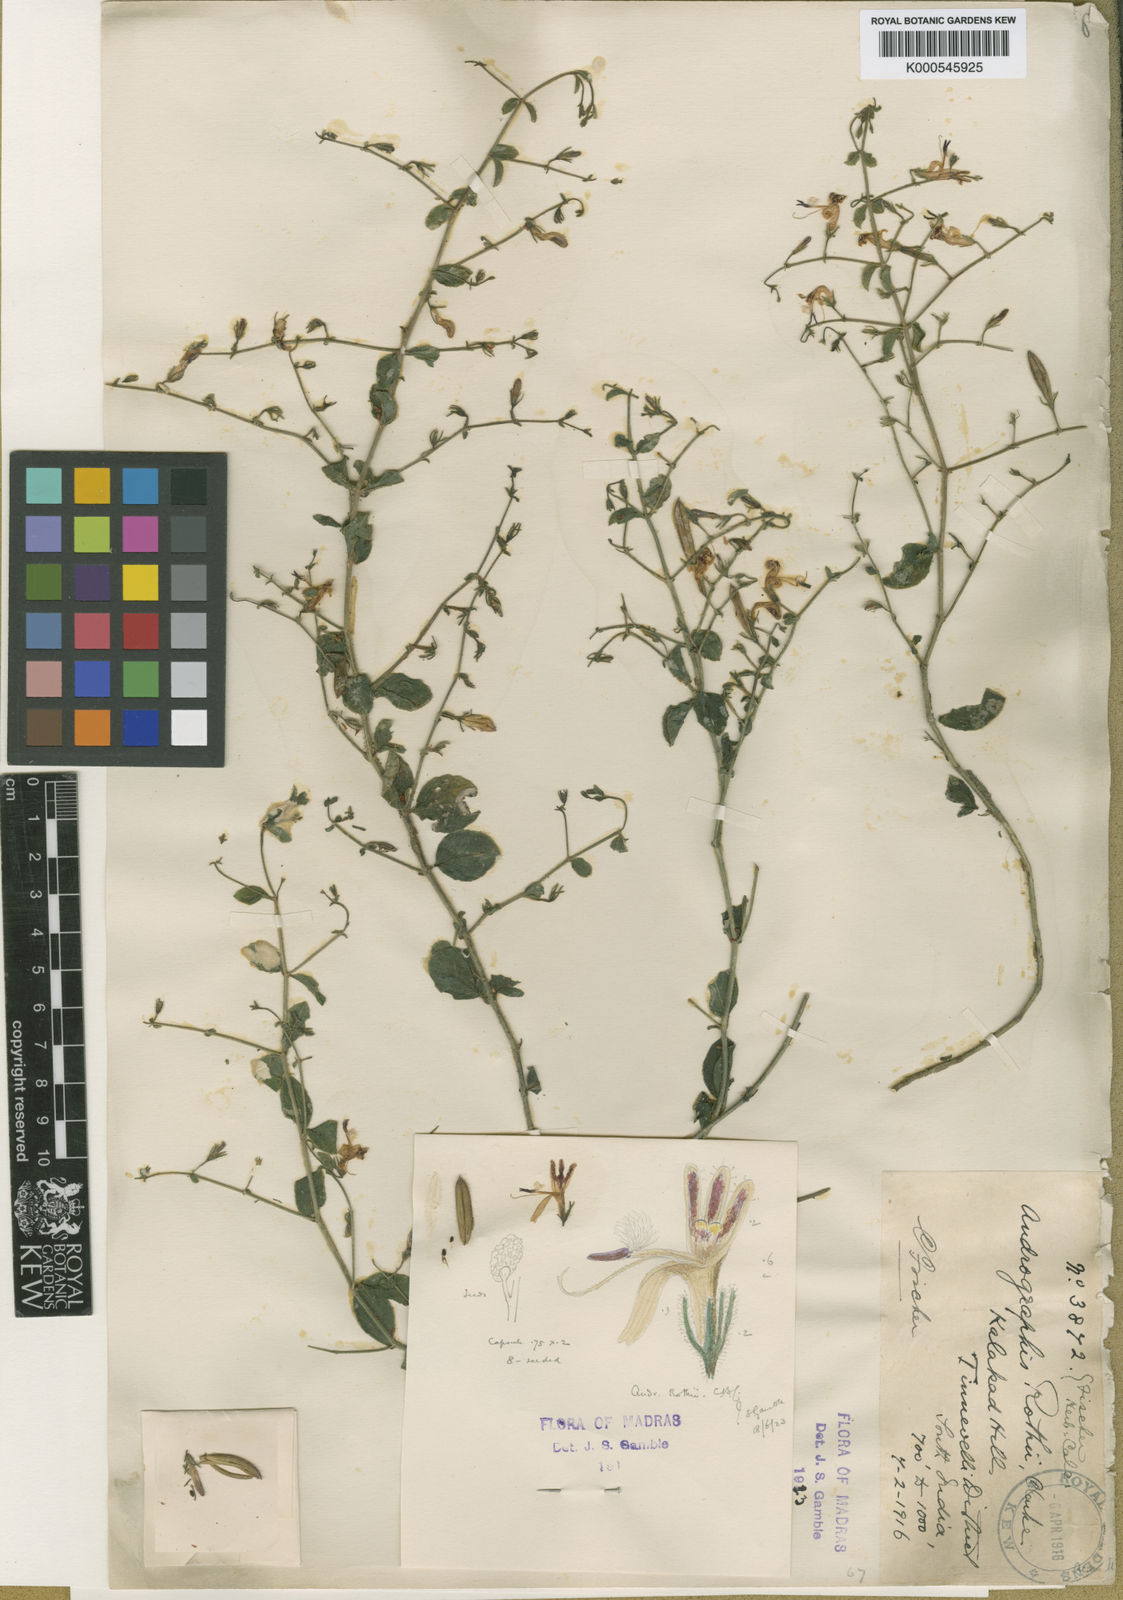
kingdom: Plantae
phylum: Tracheophyta
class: Magnoliopsida
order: Lamiales
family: Acanthaceae
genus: Andrographis
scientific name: Andrographis rothii
